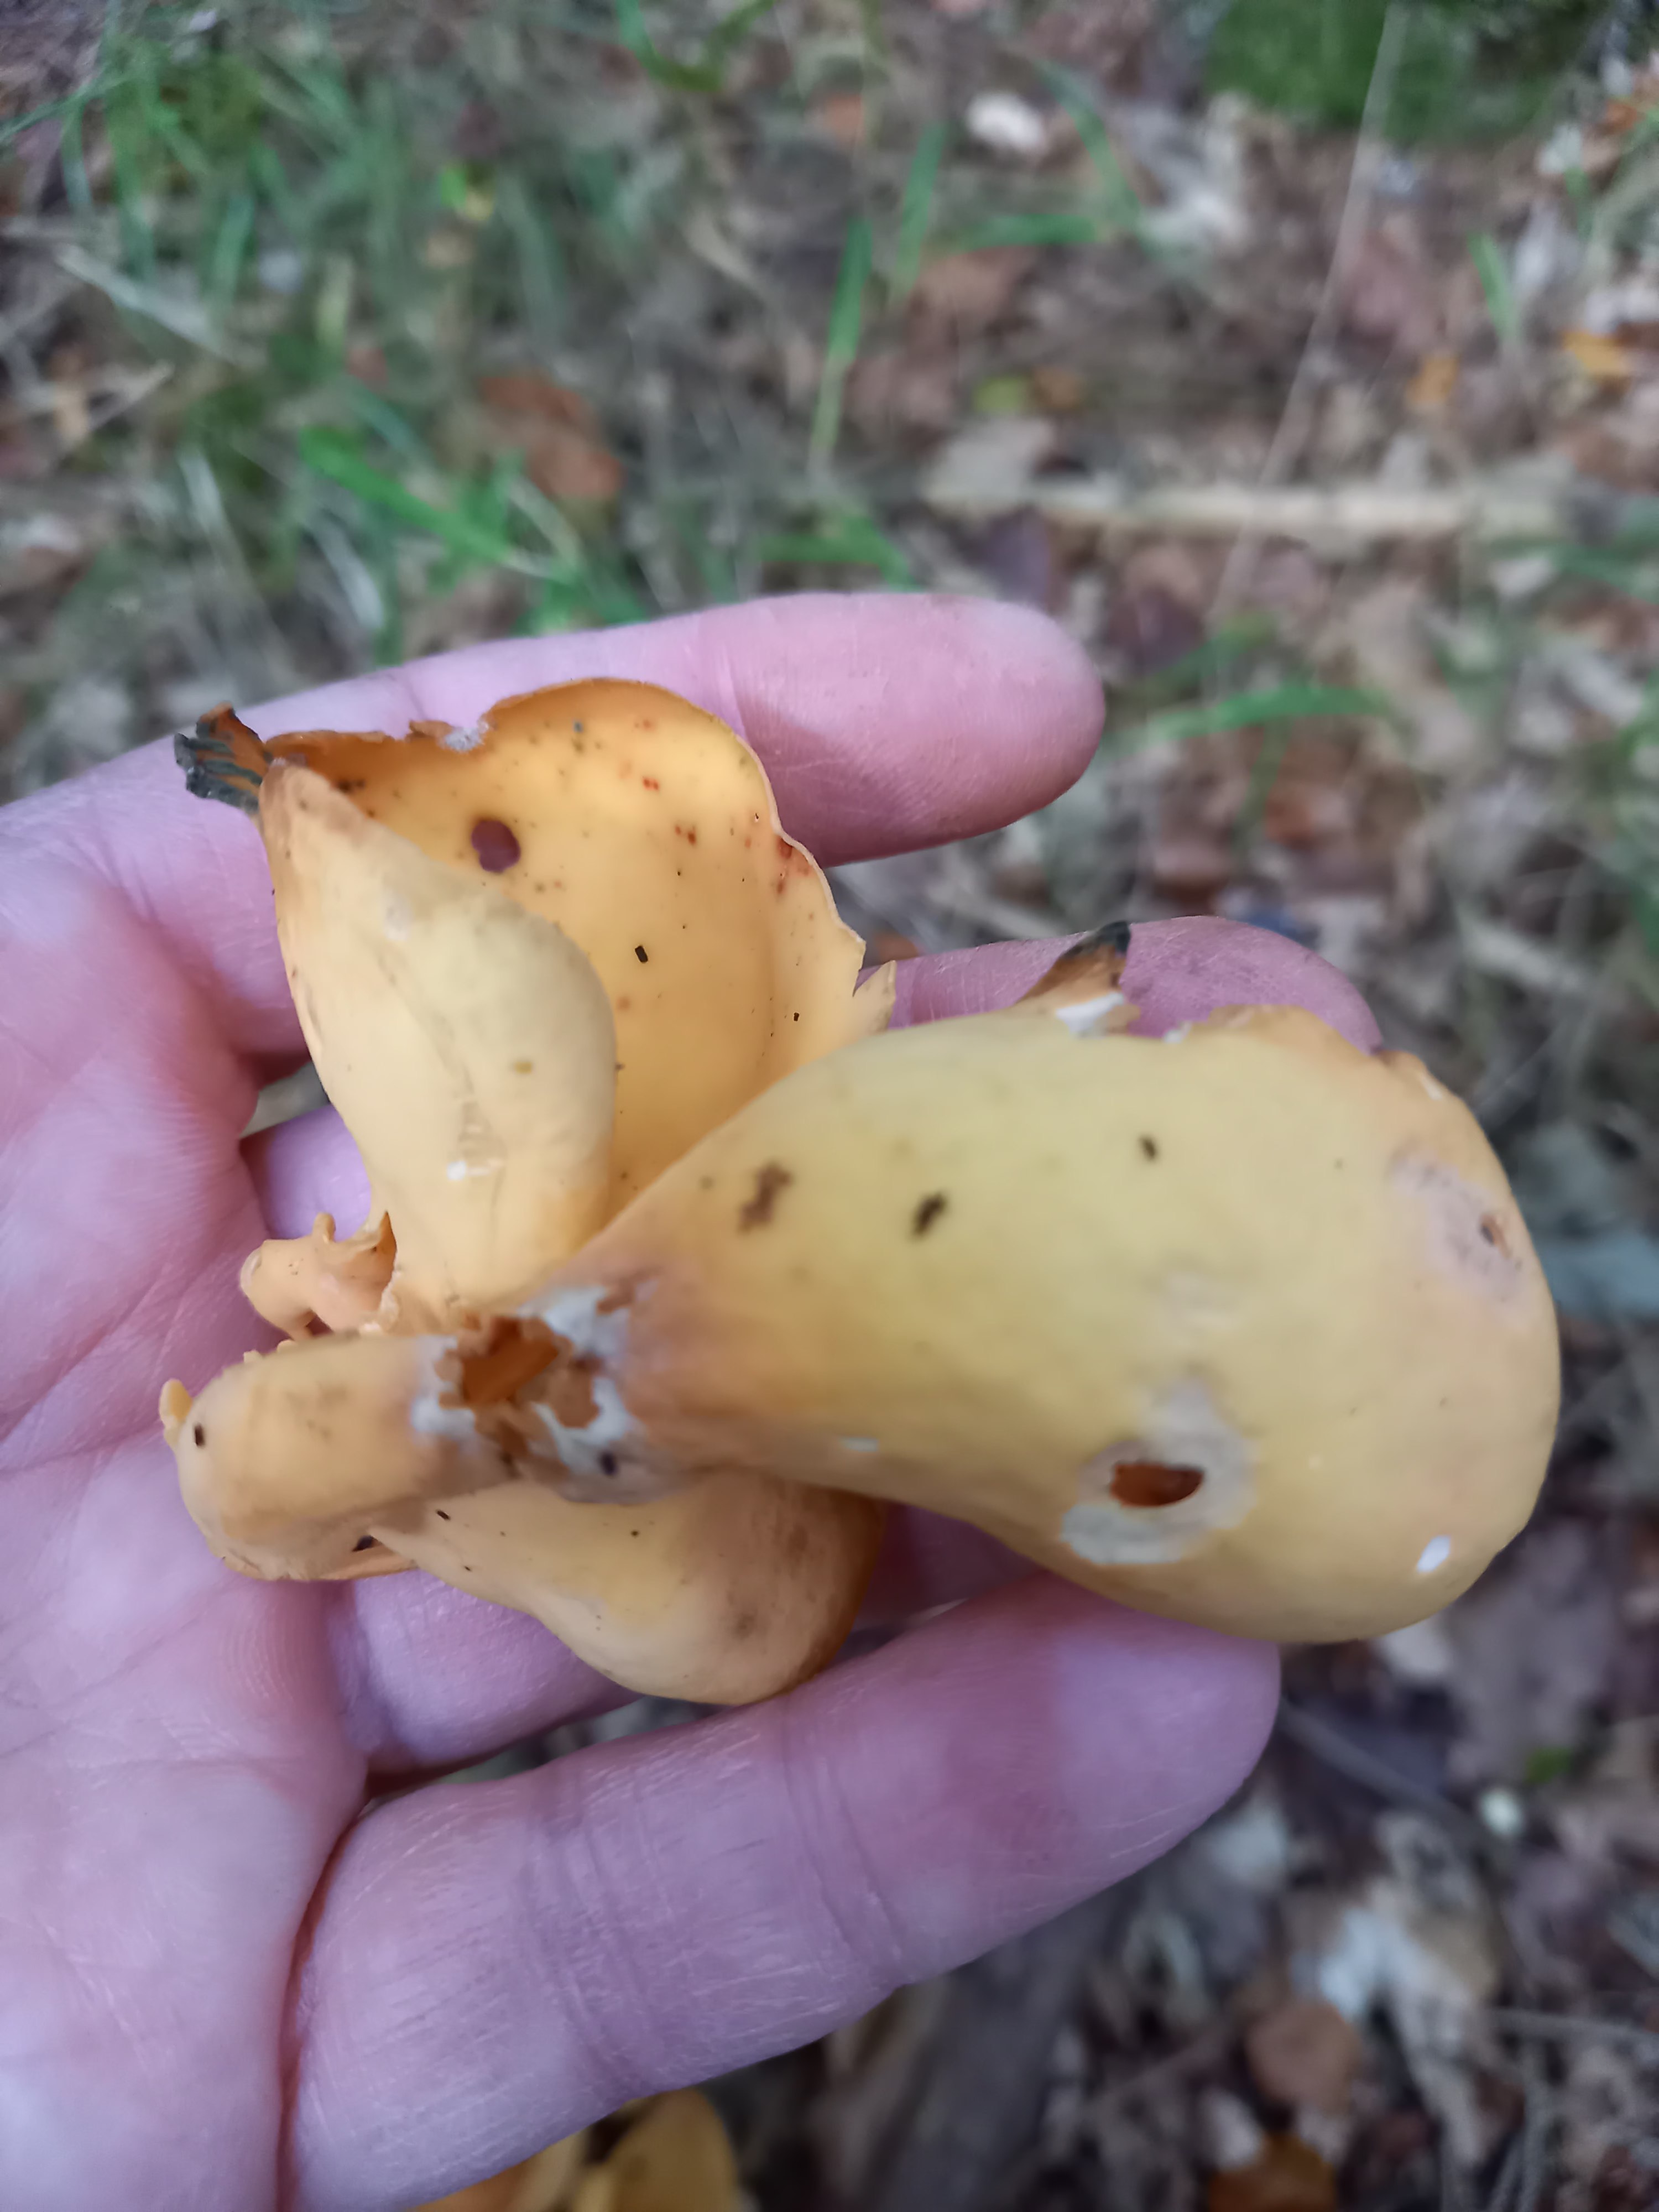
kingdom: Fungi
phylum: Ascomycota
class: Pezizomycetes
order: Pezizales
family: Otideaceae
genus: Otidea
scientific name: Otidea onotica
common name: æsel-ørebæger
